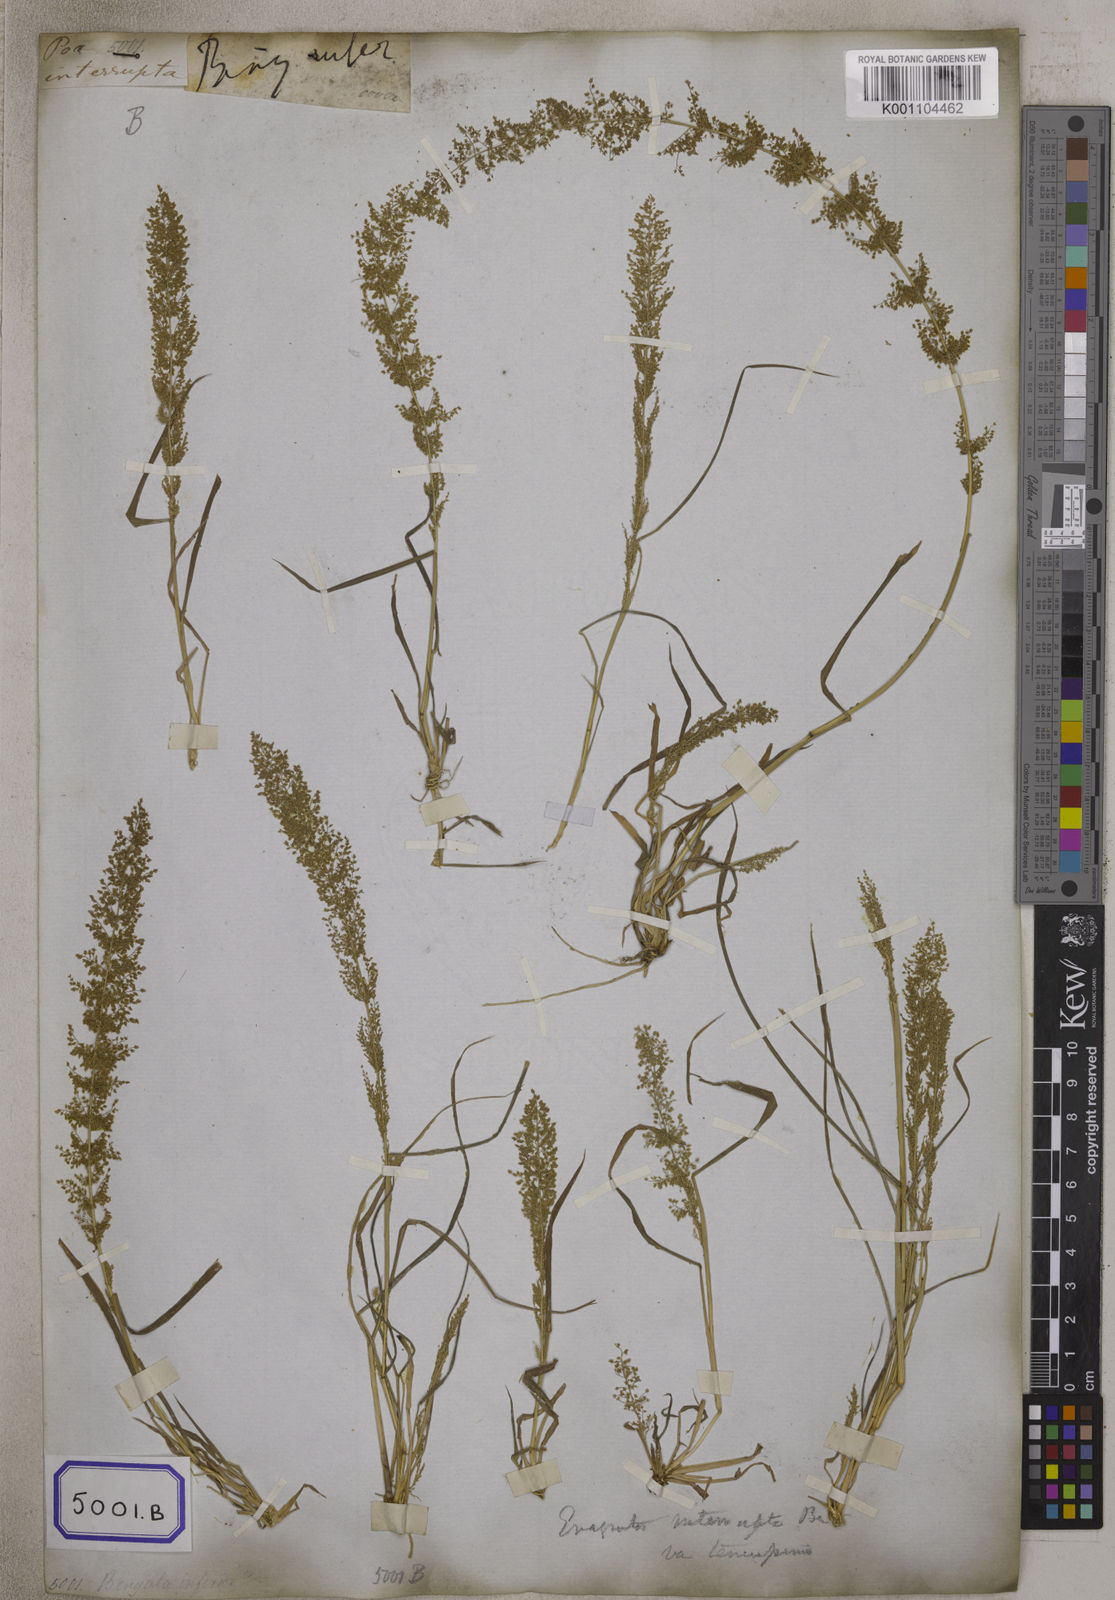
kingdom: Plantae
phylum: Tracheophyta
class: Liliopsida
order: Poales
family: Poaceae
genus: Eragrostis
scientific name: Eragrostis
